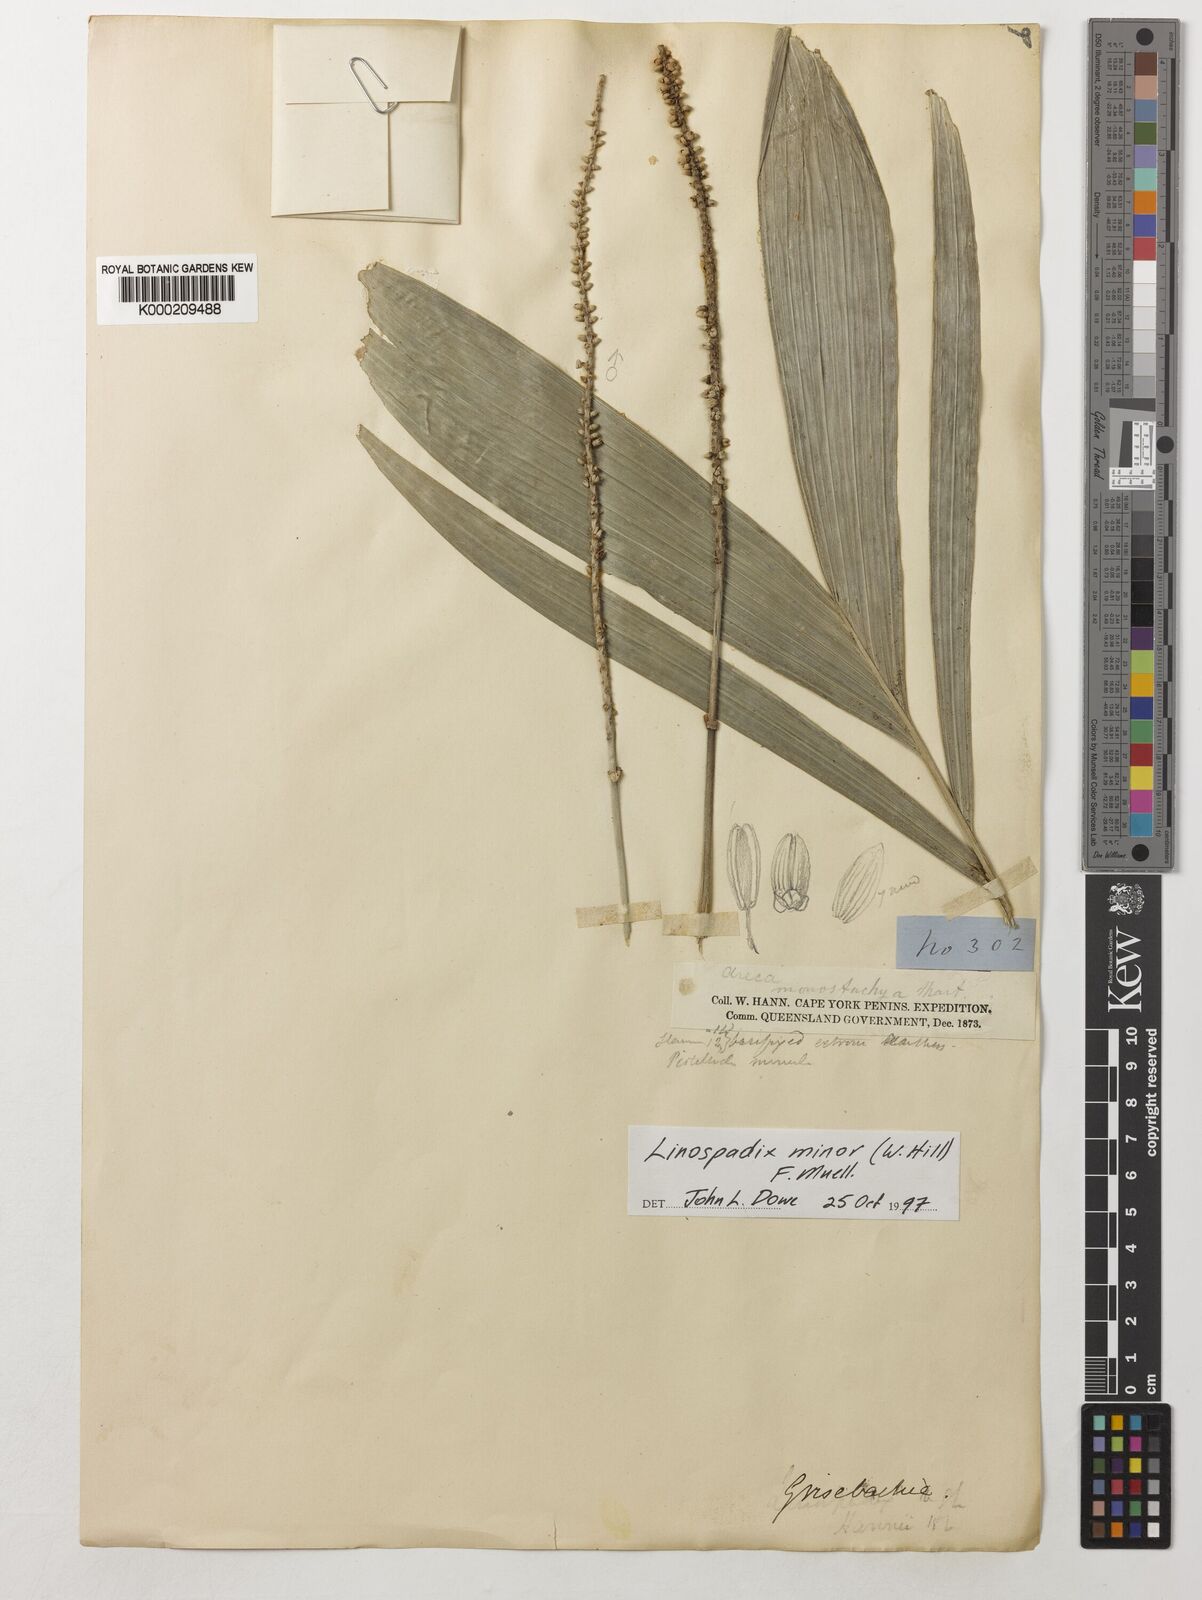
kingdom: Plantae
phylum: Tracheophyta
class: Liliopsida
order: Arecales
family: Arecaceae
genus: Linospadix
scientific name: Linospadix minor
